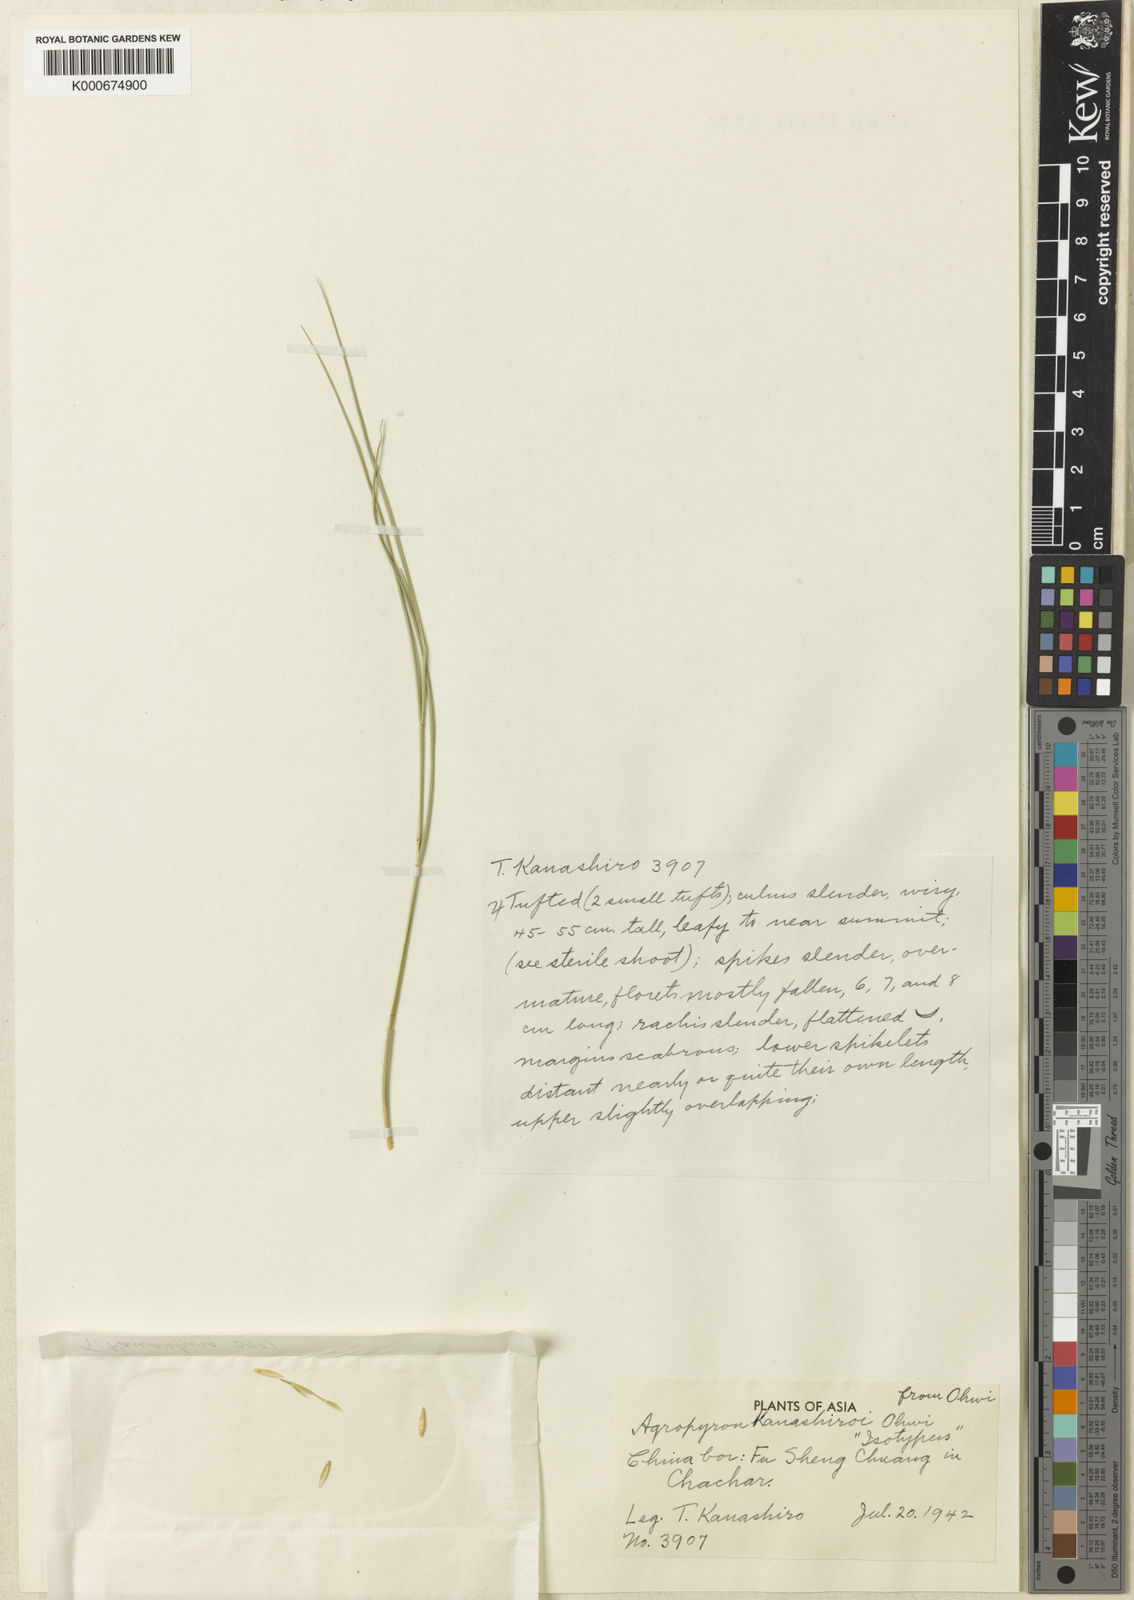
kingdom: Plantae
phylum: Tracheophyta
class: Liliopsida
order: Poales
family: Poaceae
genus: Elymus
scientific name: Elymus
